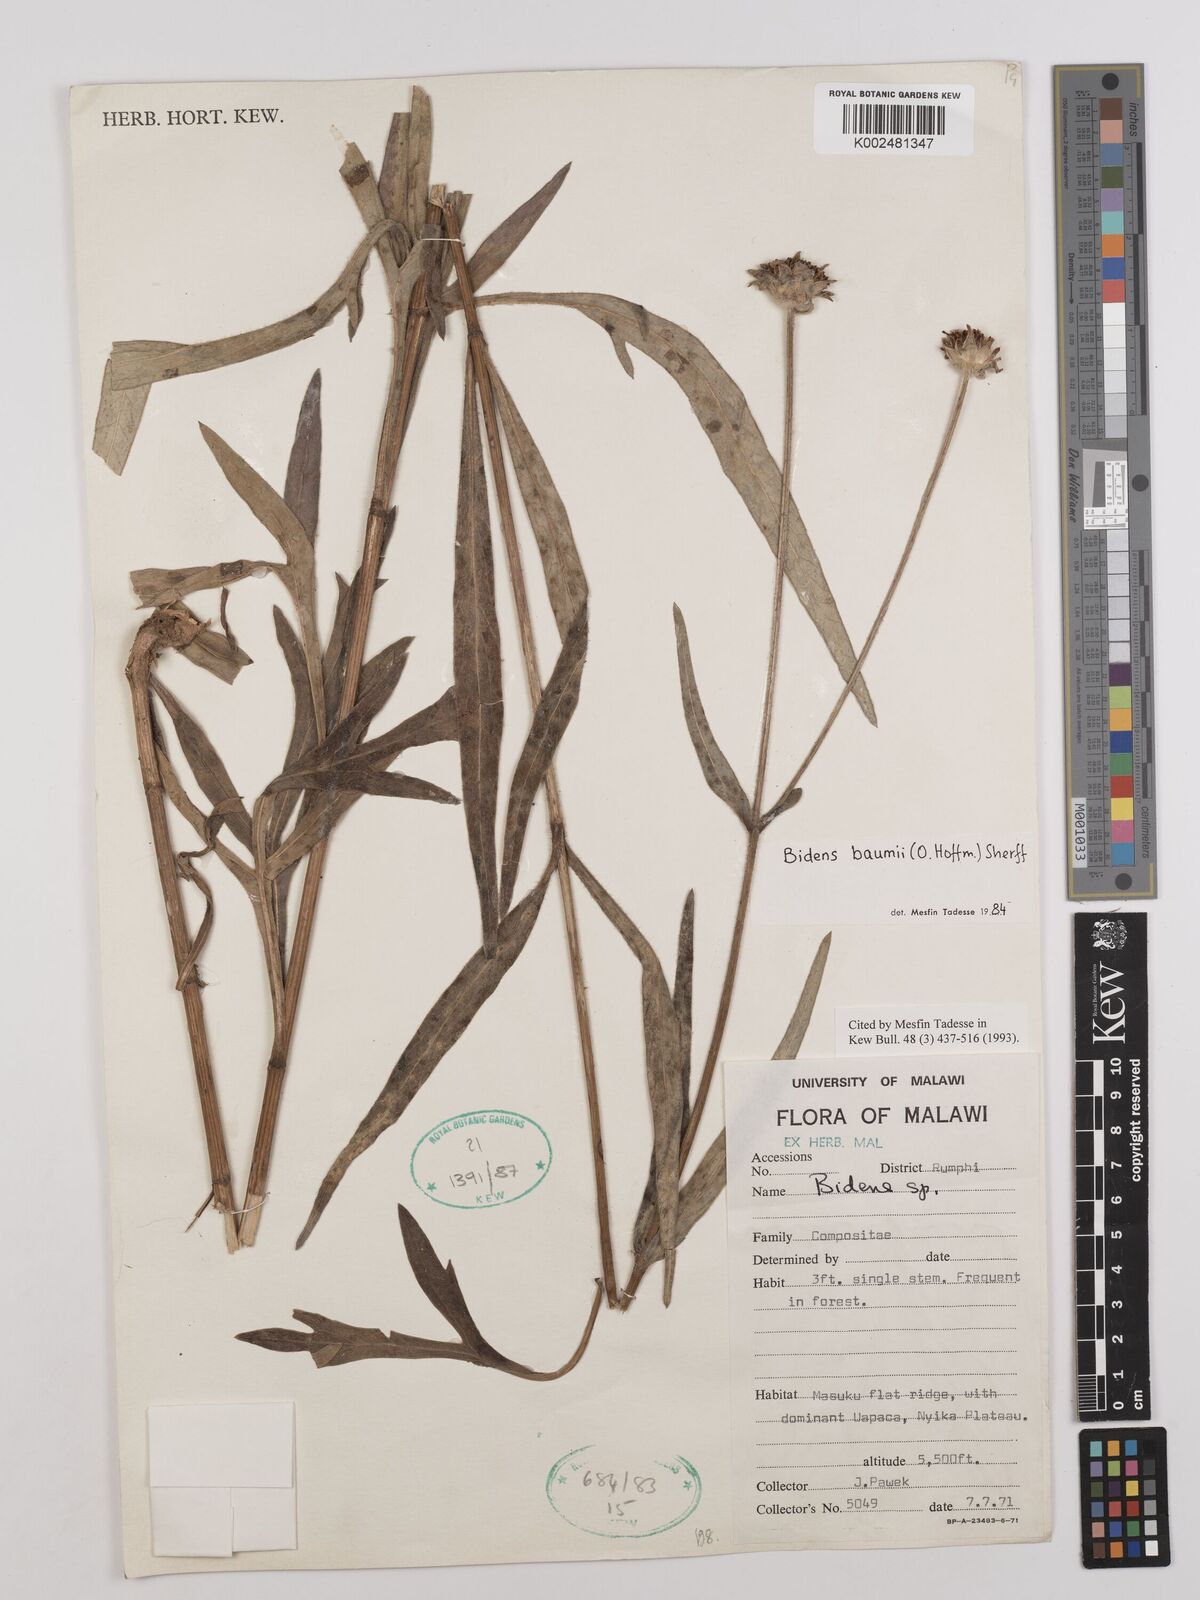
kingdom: Plantae
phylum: Tracheophyta
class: Magnoliopsida
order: Asterales
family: Asteraceae
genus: Bidens
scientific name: Bidens baumii
